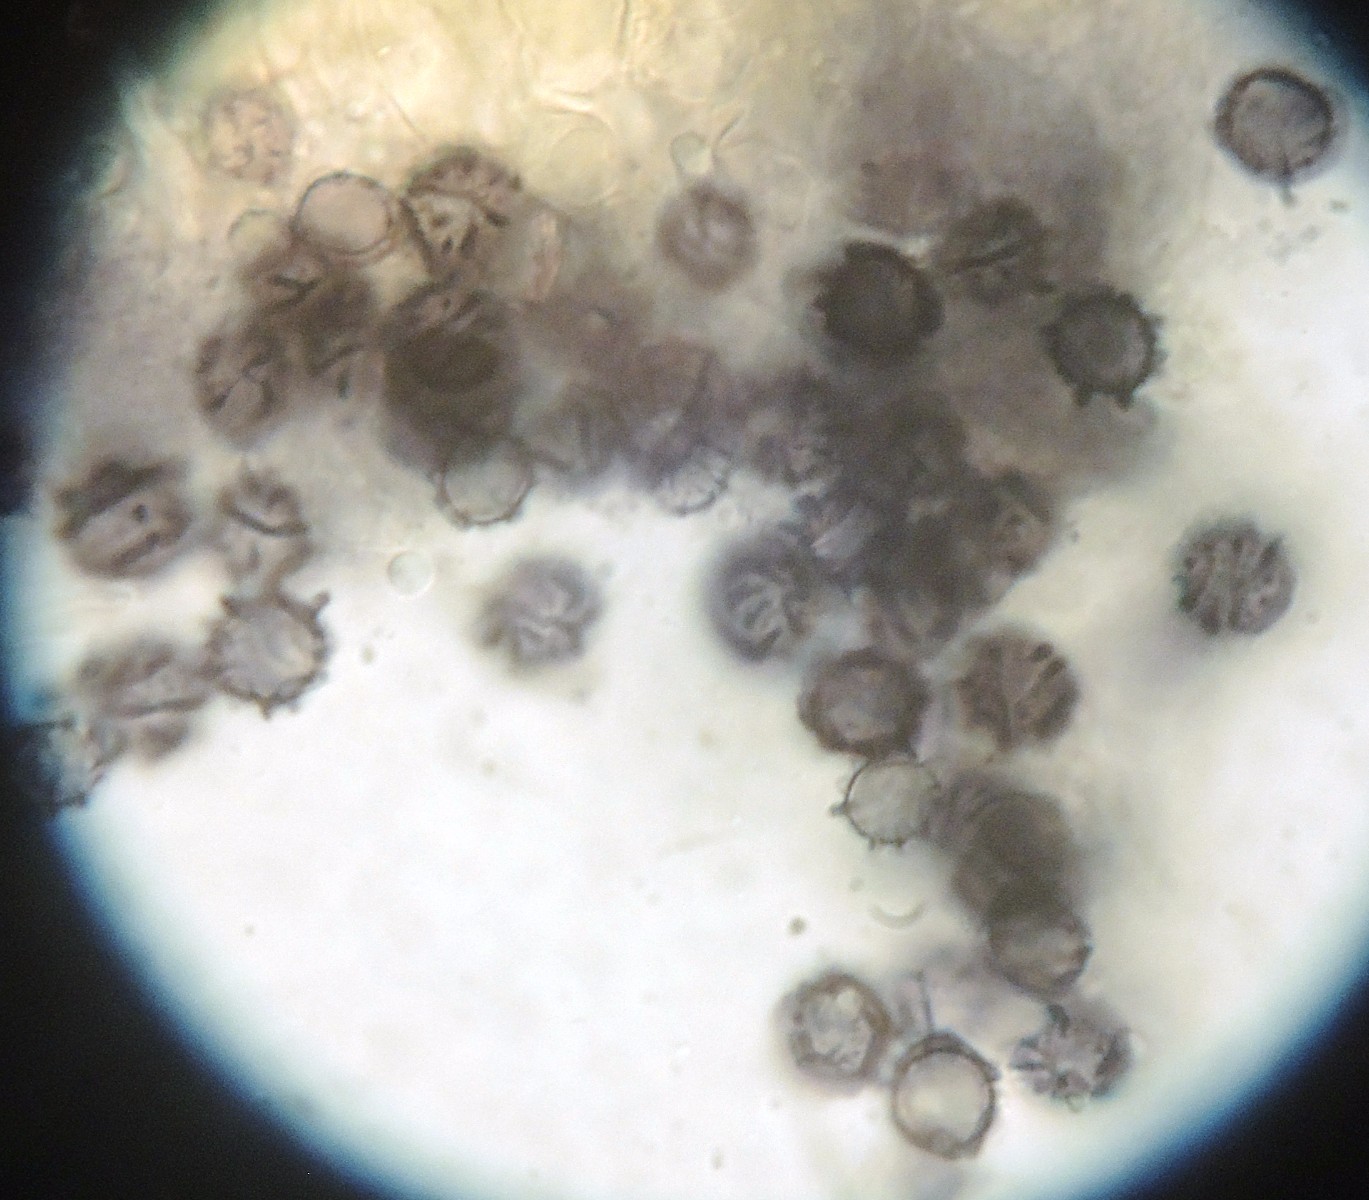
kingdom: Fungi
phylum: Basidiomycota
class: Agaricomycetes
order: Russulales
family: Russulaceae
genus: Lactarius
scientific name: Lactarius ruginosus
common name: gråbrun mælkehat
